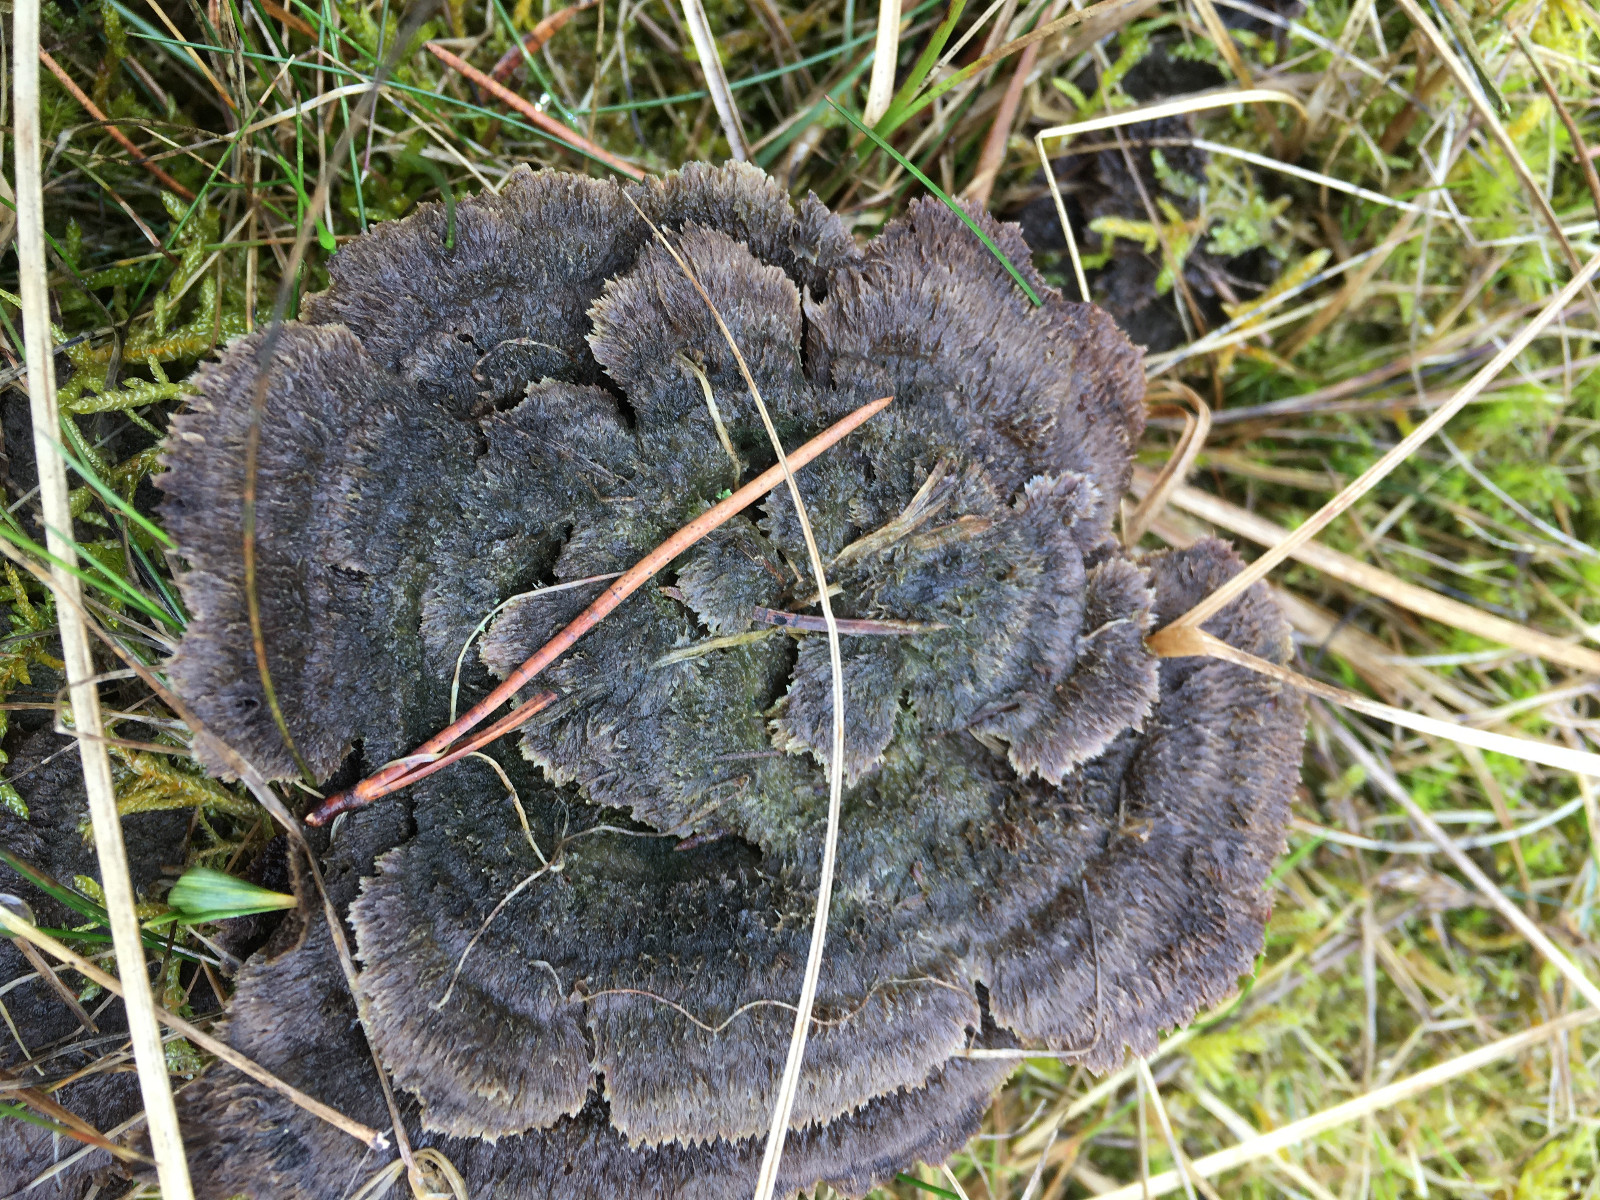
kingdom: Fungi
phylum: Basidiomycota
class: Agaricomycetes
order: Thelephorales
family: Thelephoraceae
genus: Thelephora
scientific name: Thelephora terrestris
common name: fliget frynsesvamp
